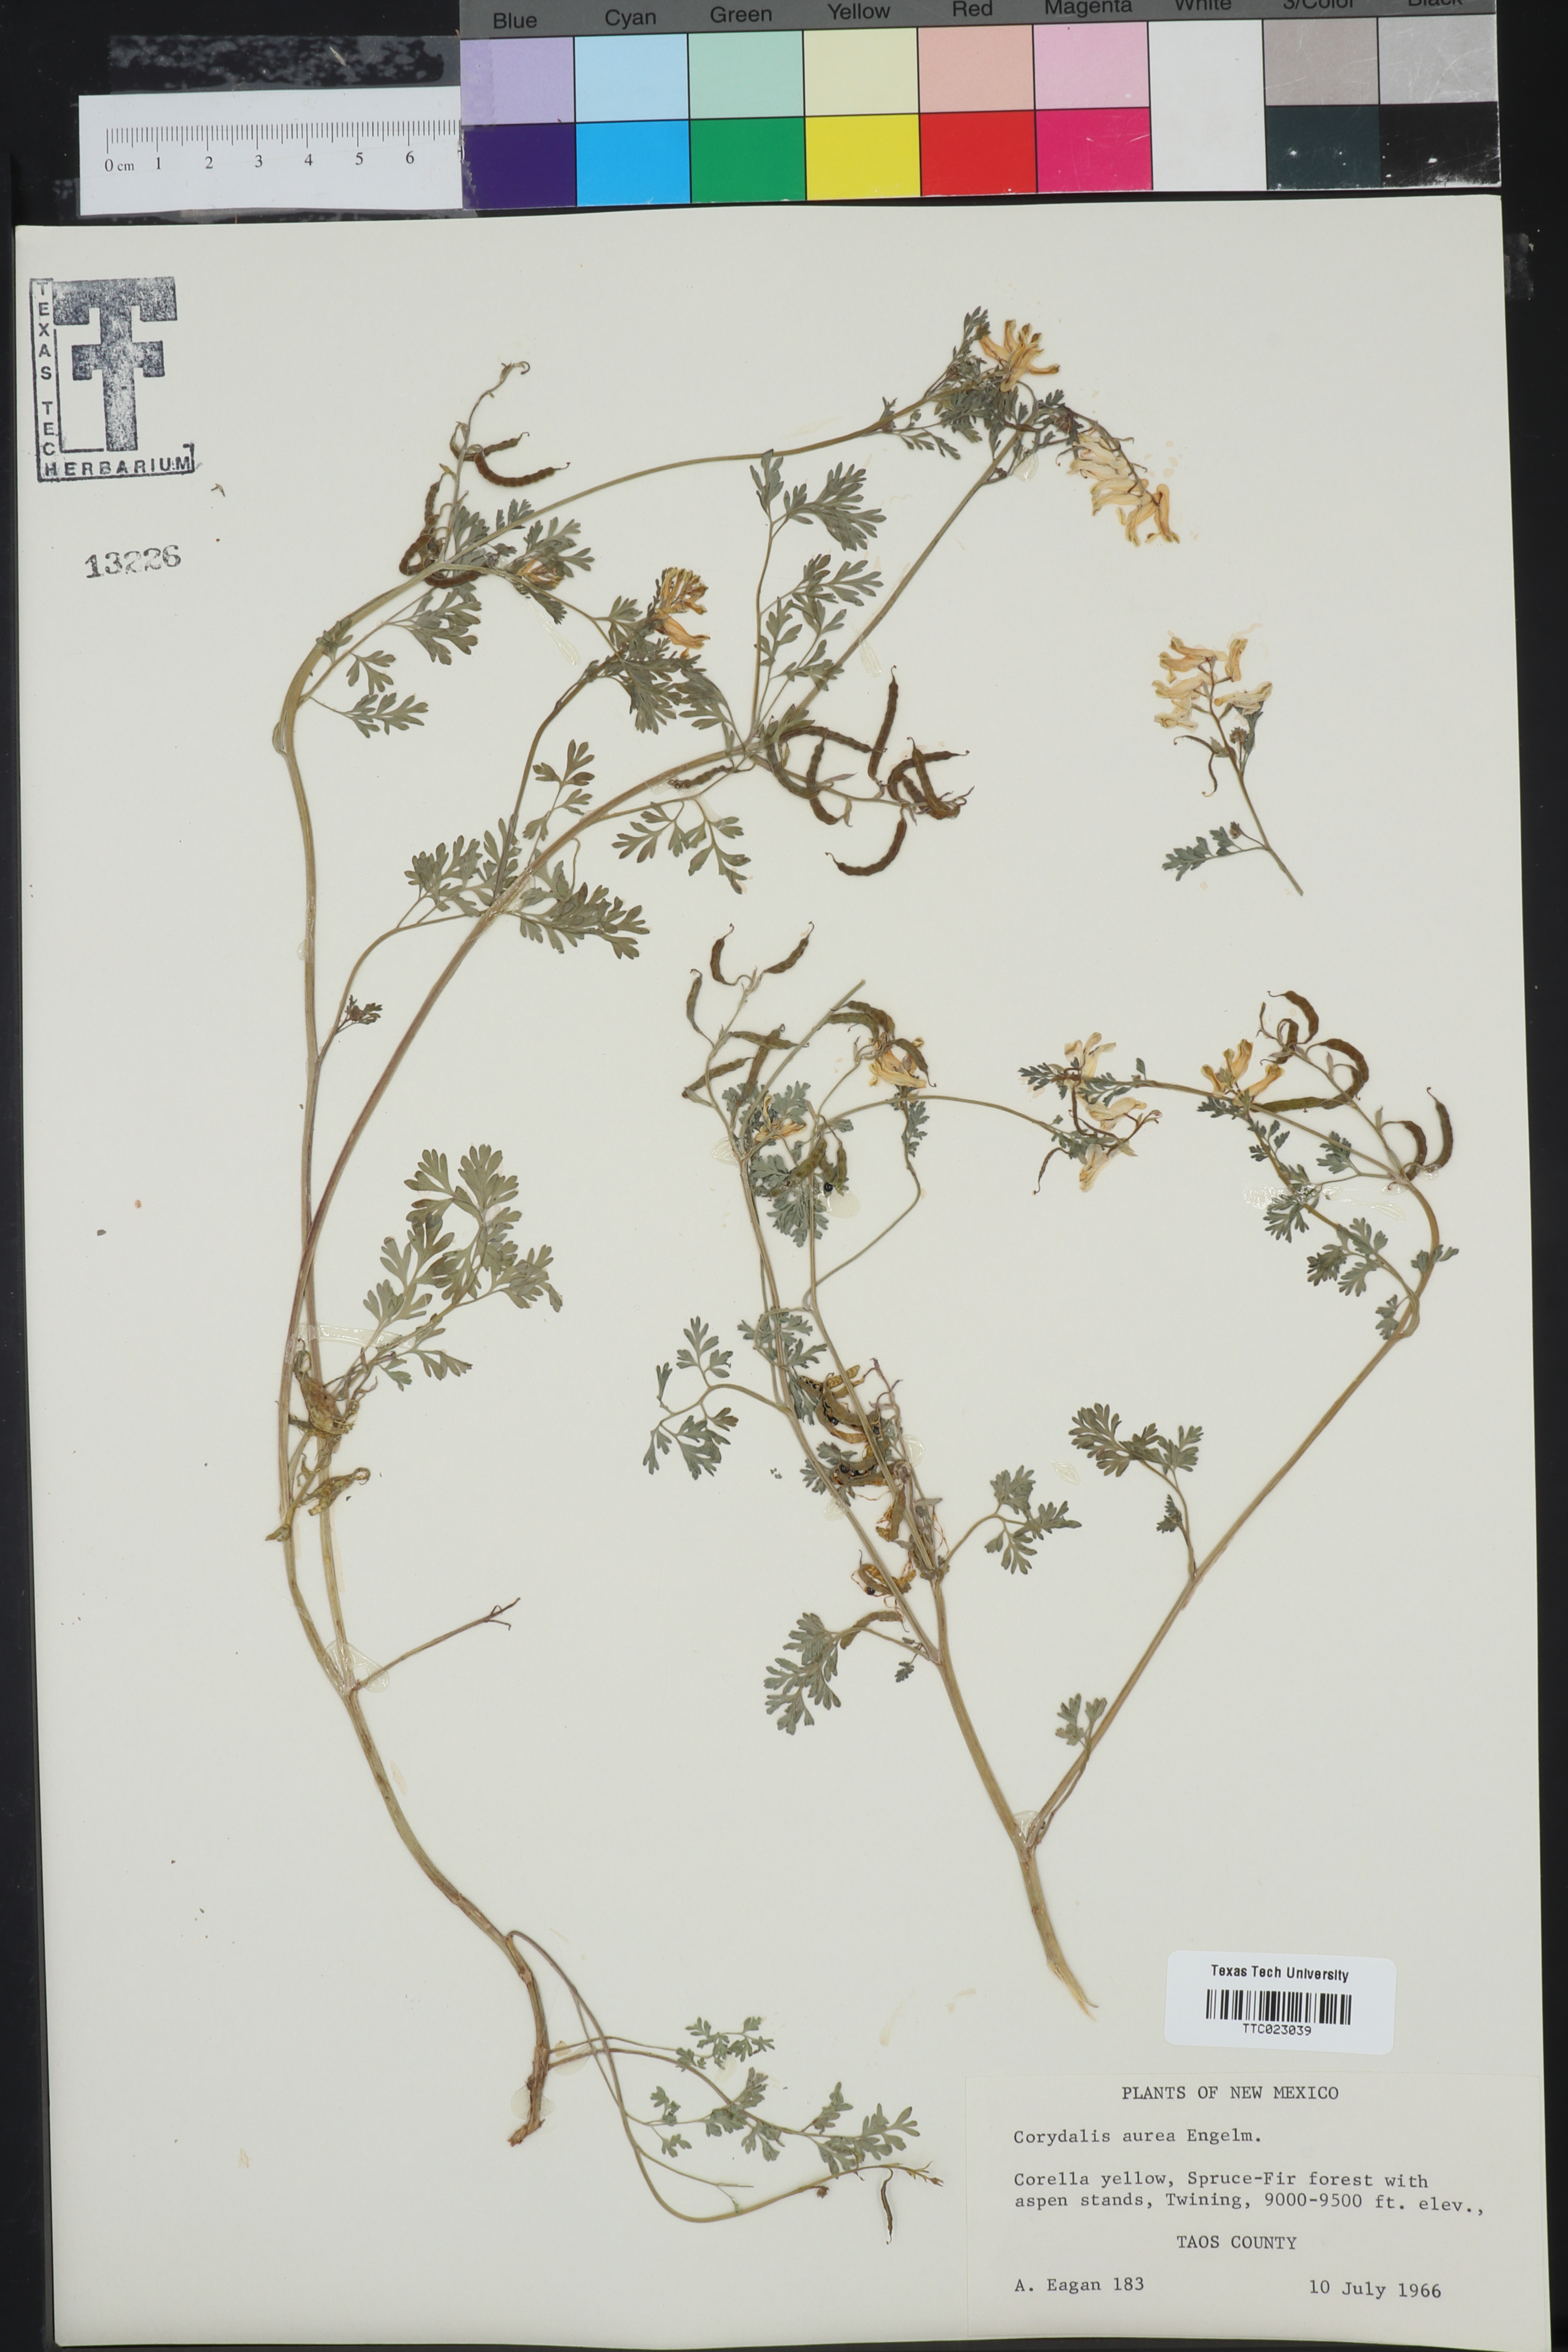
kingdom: Plantae
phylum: Tracheophyta
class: Magnoliopsida
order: Ranunculales
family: Papaveraceae
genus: Corydalis
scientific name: Corydalis aurea
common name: Golden corydalis
